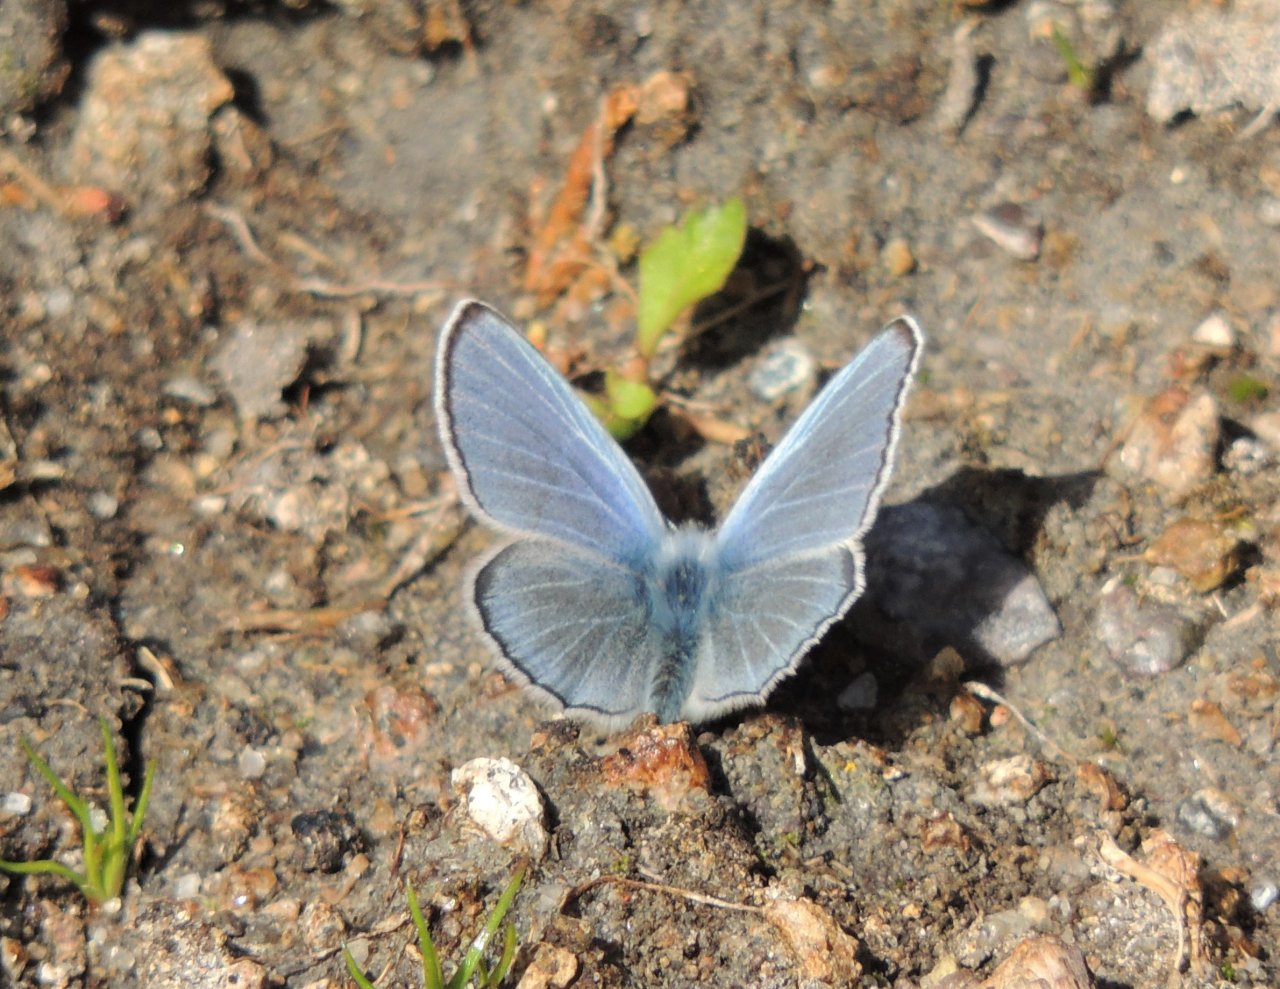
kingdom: Animalia
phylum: Arthropoda
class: Insecta
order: Lepidoptera
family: Lycaenidae
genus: Glaucopsyche
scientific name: Glaucopsyche lygdamus
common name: Silvery Blue
